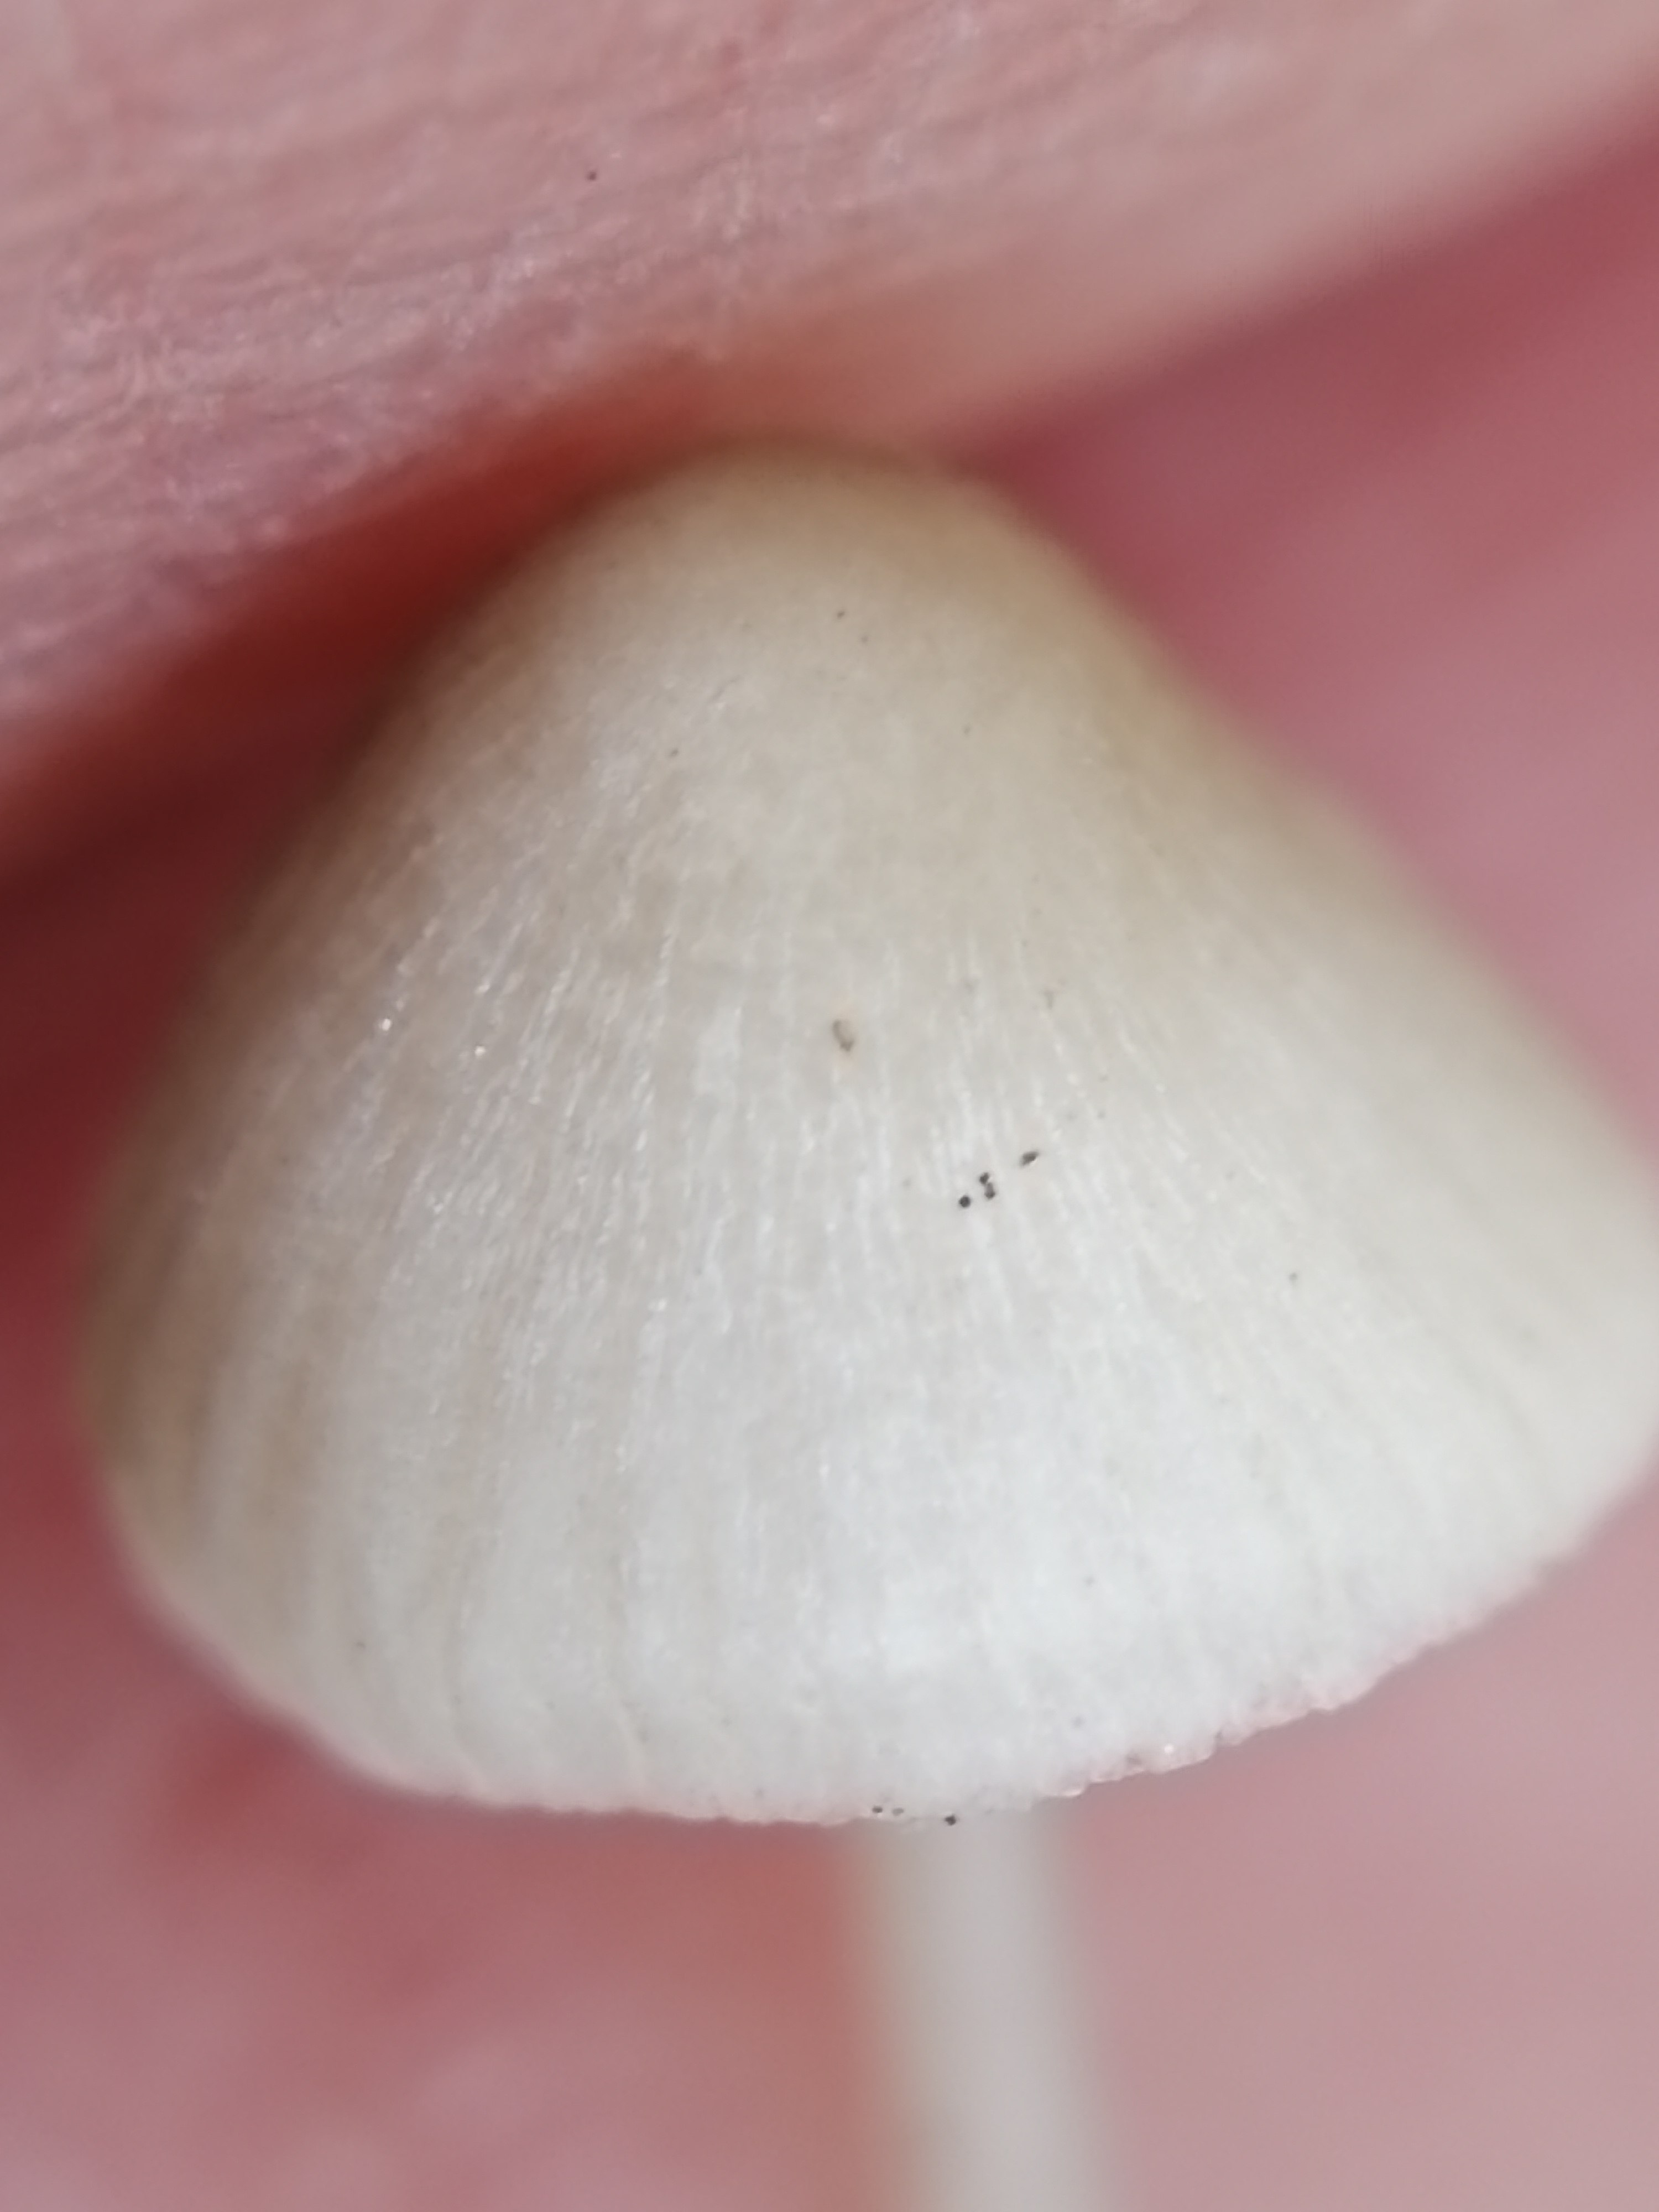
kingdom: Fungi
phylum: Basidiomycota
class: Agaricomycetes
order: Agaricales
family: Mycenaceae
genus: Mycena
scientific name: Mycena
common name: huesvamp
